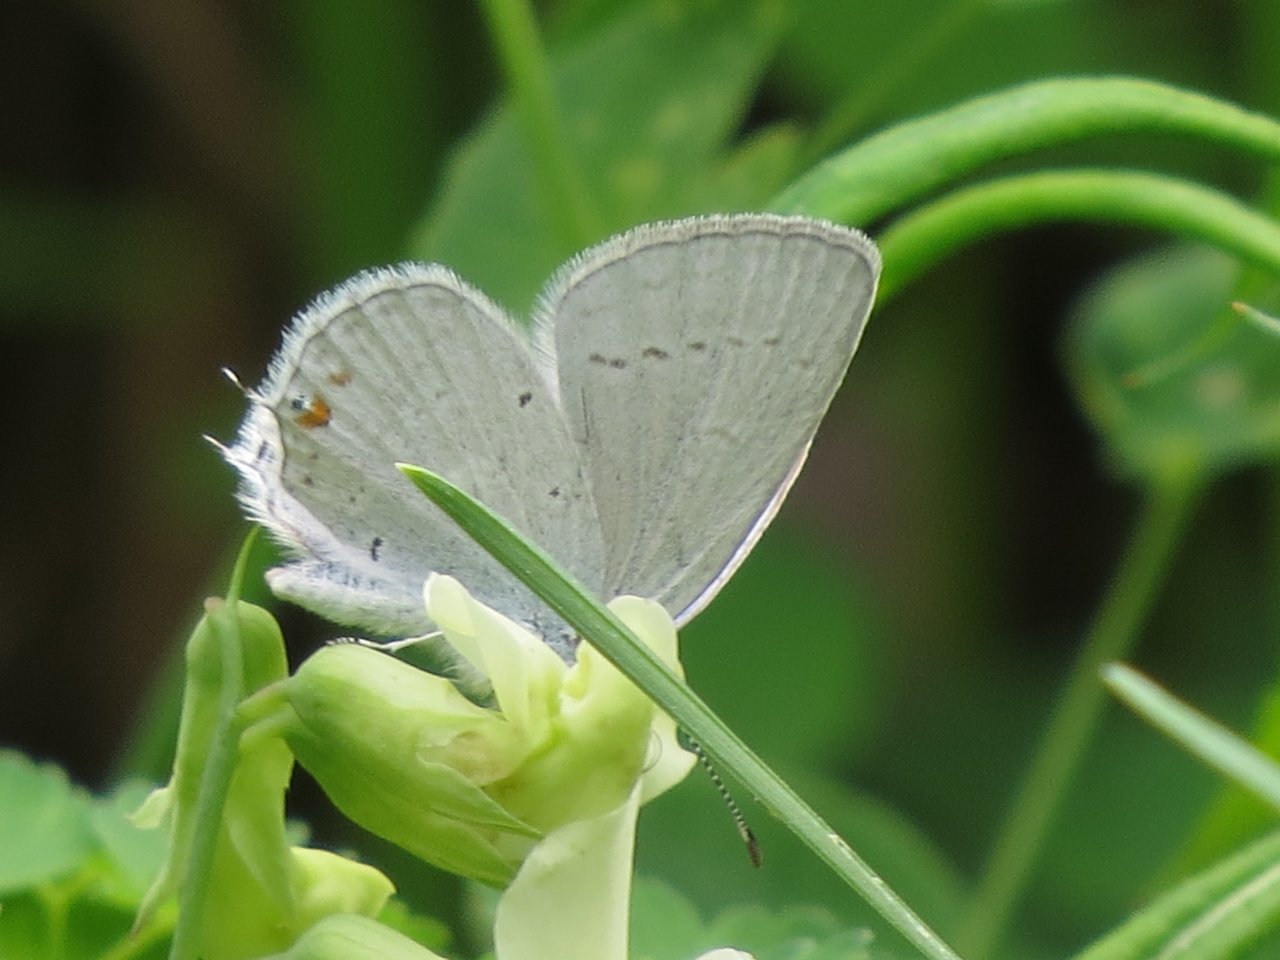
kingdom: Animalia
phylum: Arthropoda
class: Insecta
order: Lepidoptera
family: Lycaenidae
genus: Elkalyce
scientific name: Elkalyce amyntula
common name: Western Tailed-Blue
